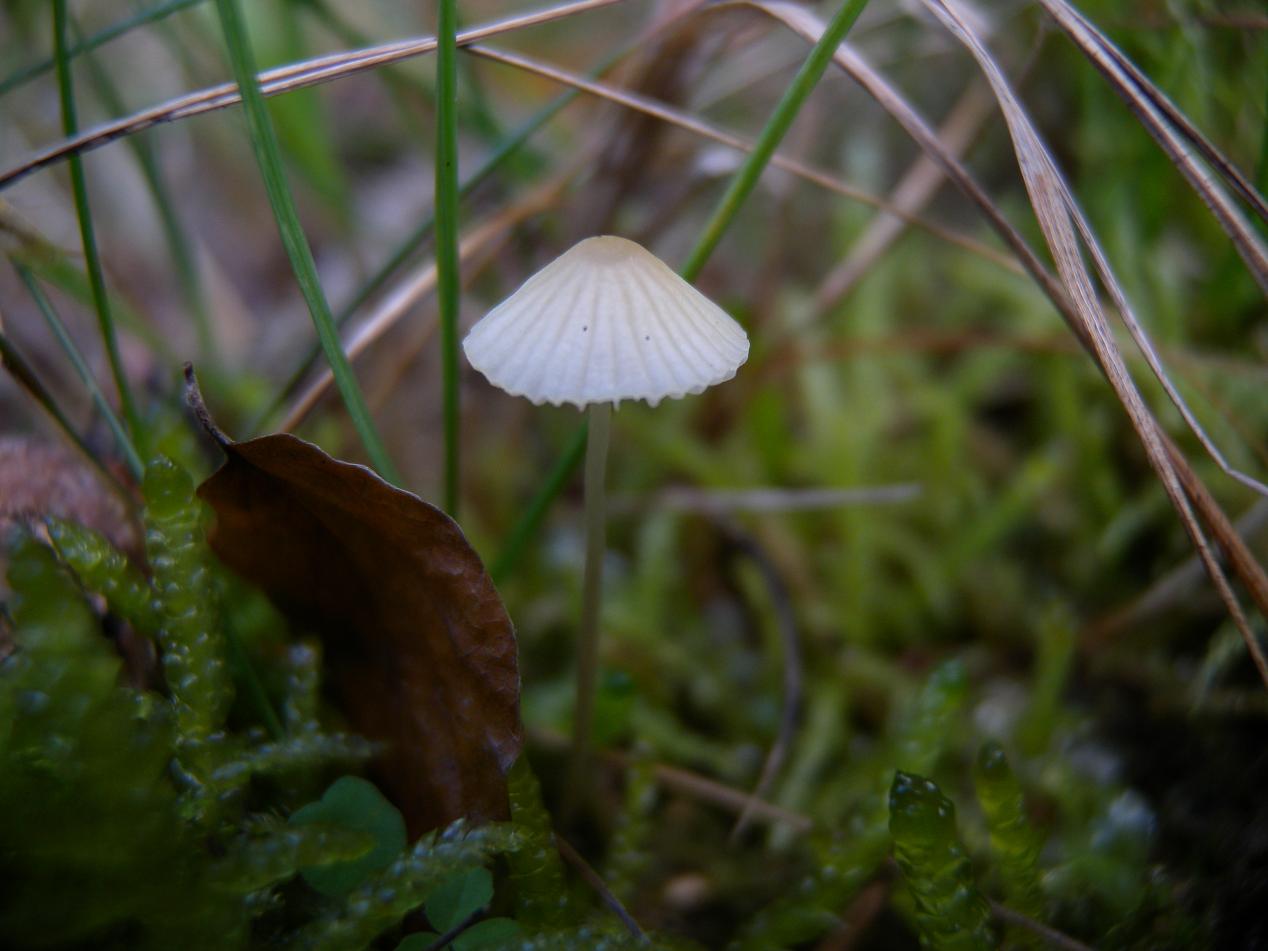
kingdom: Fungi
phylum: Basidiomycota
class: Agaricomycetes
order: Agaricales
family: Mycenaceae
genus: Mycena
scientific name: Mycena citrinomarginata
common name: gulægget huesvamp
